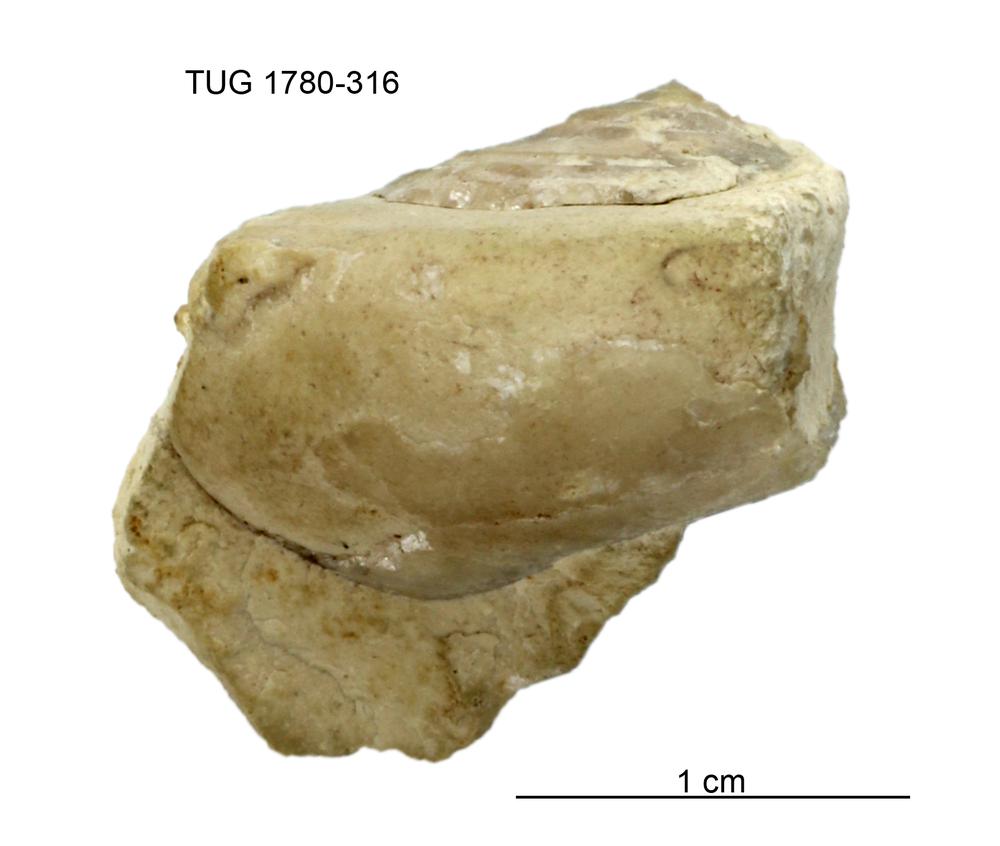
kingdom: Animalia
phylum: Mollusca
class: Gastropoda
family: Lesueurillidae
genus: Pararaphistoma
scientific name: Pararaphistoma Raphistoma suturale
